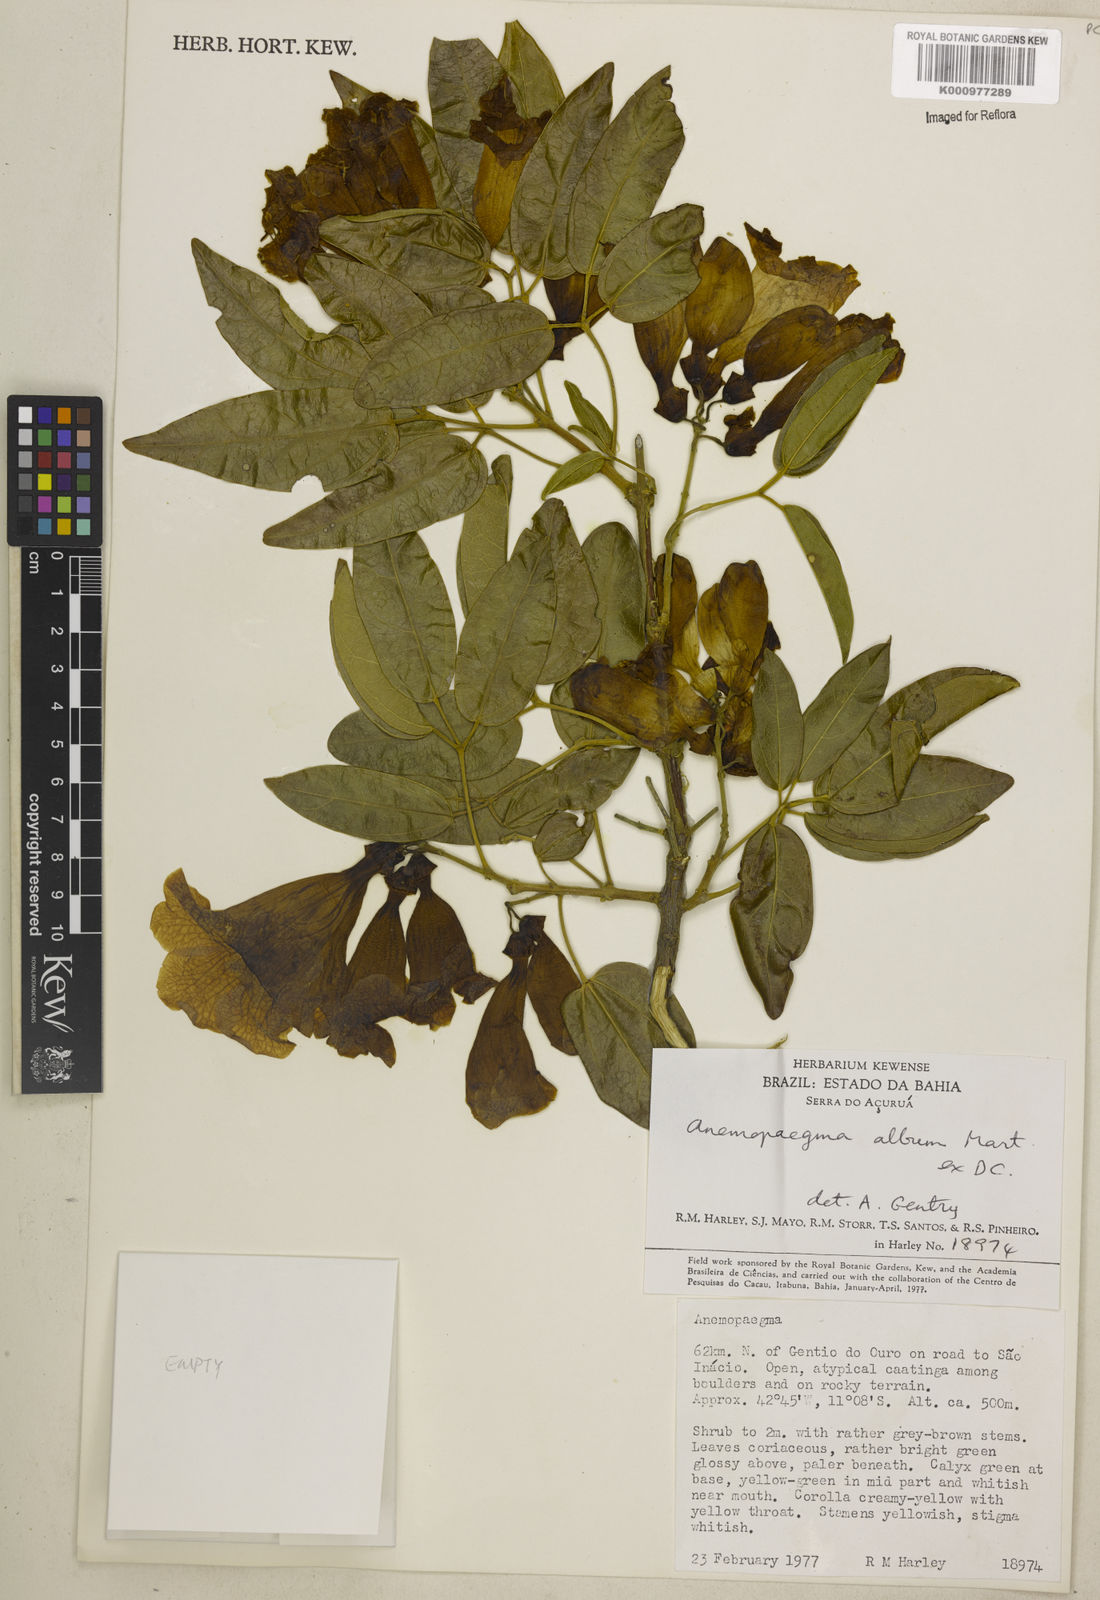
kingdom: Plantae
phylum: Tracheophyta
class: Magnoliopsida
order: Lamiales
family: Bignoniaceae
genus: Anemopaegma
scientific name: Anemopaegma album
